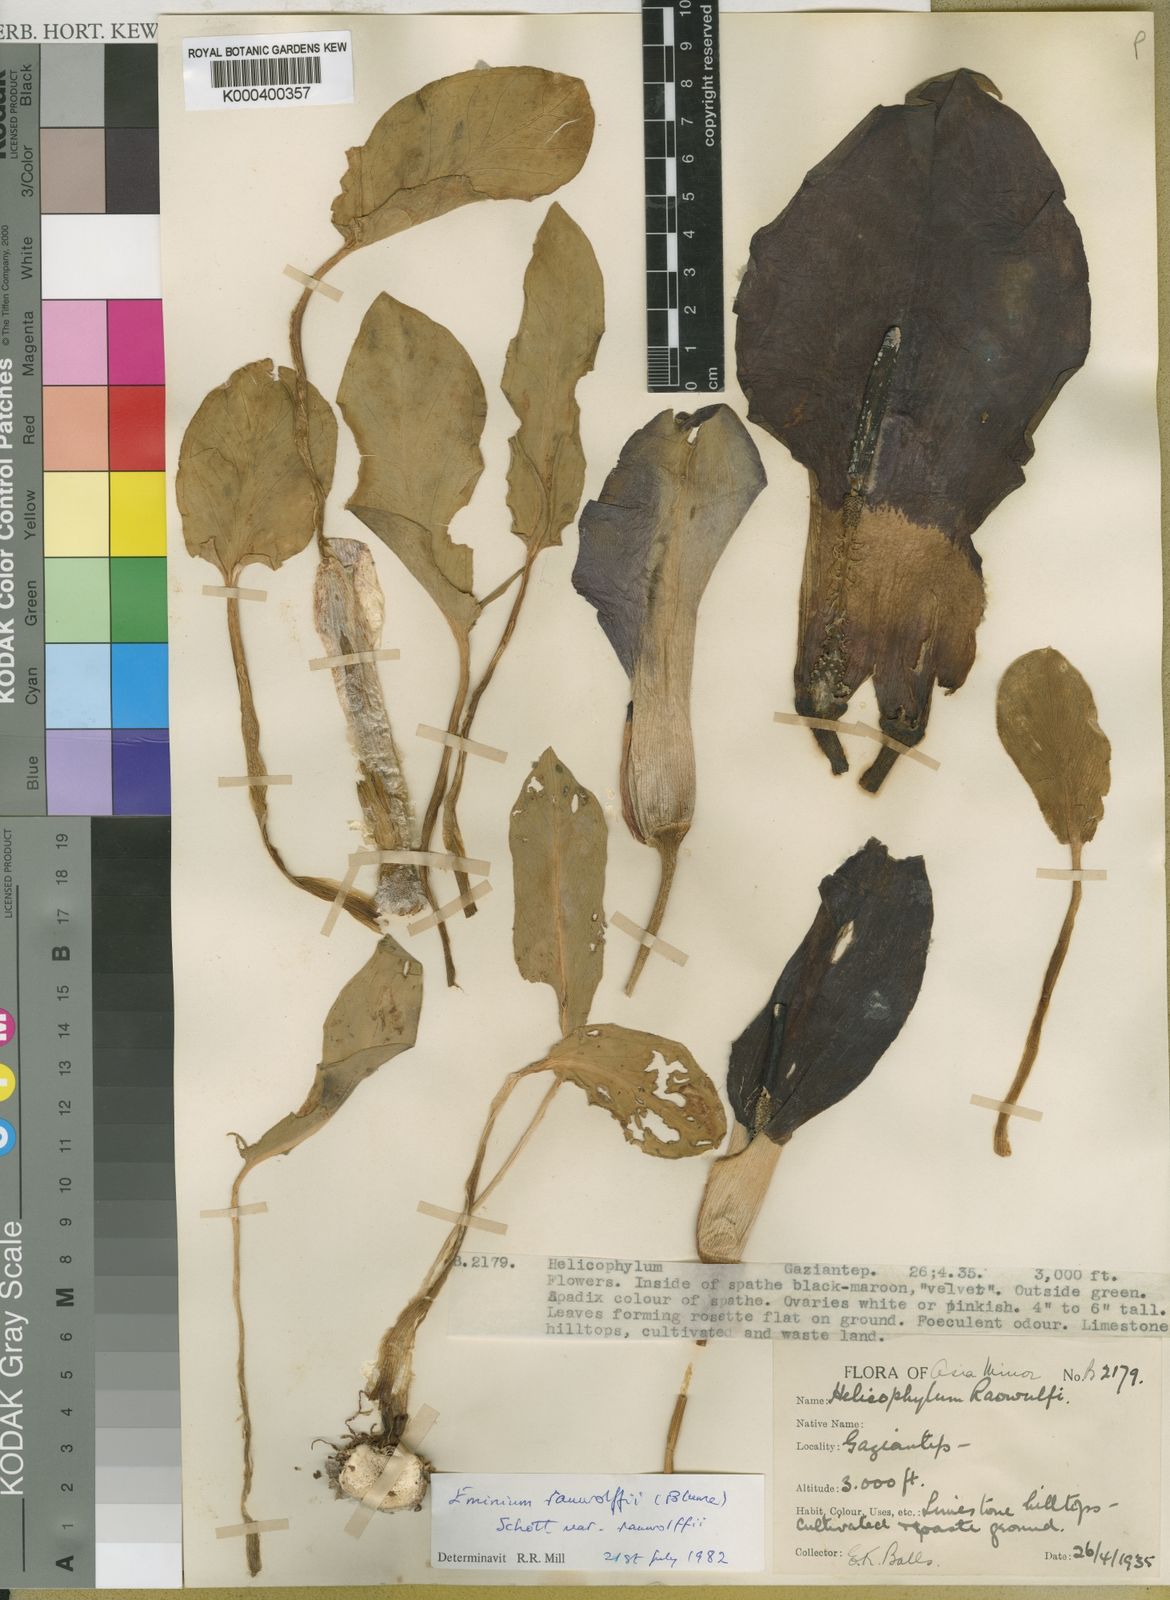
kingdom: Plantae
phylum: Tracheophyta
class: Liliopsida
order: Alismatales
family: Araceae
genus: Eminium
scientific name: Eminium rauwolffii
